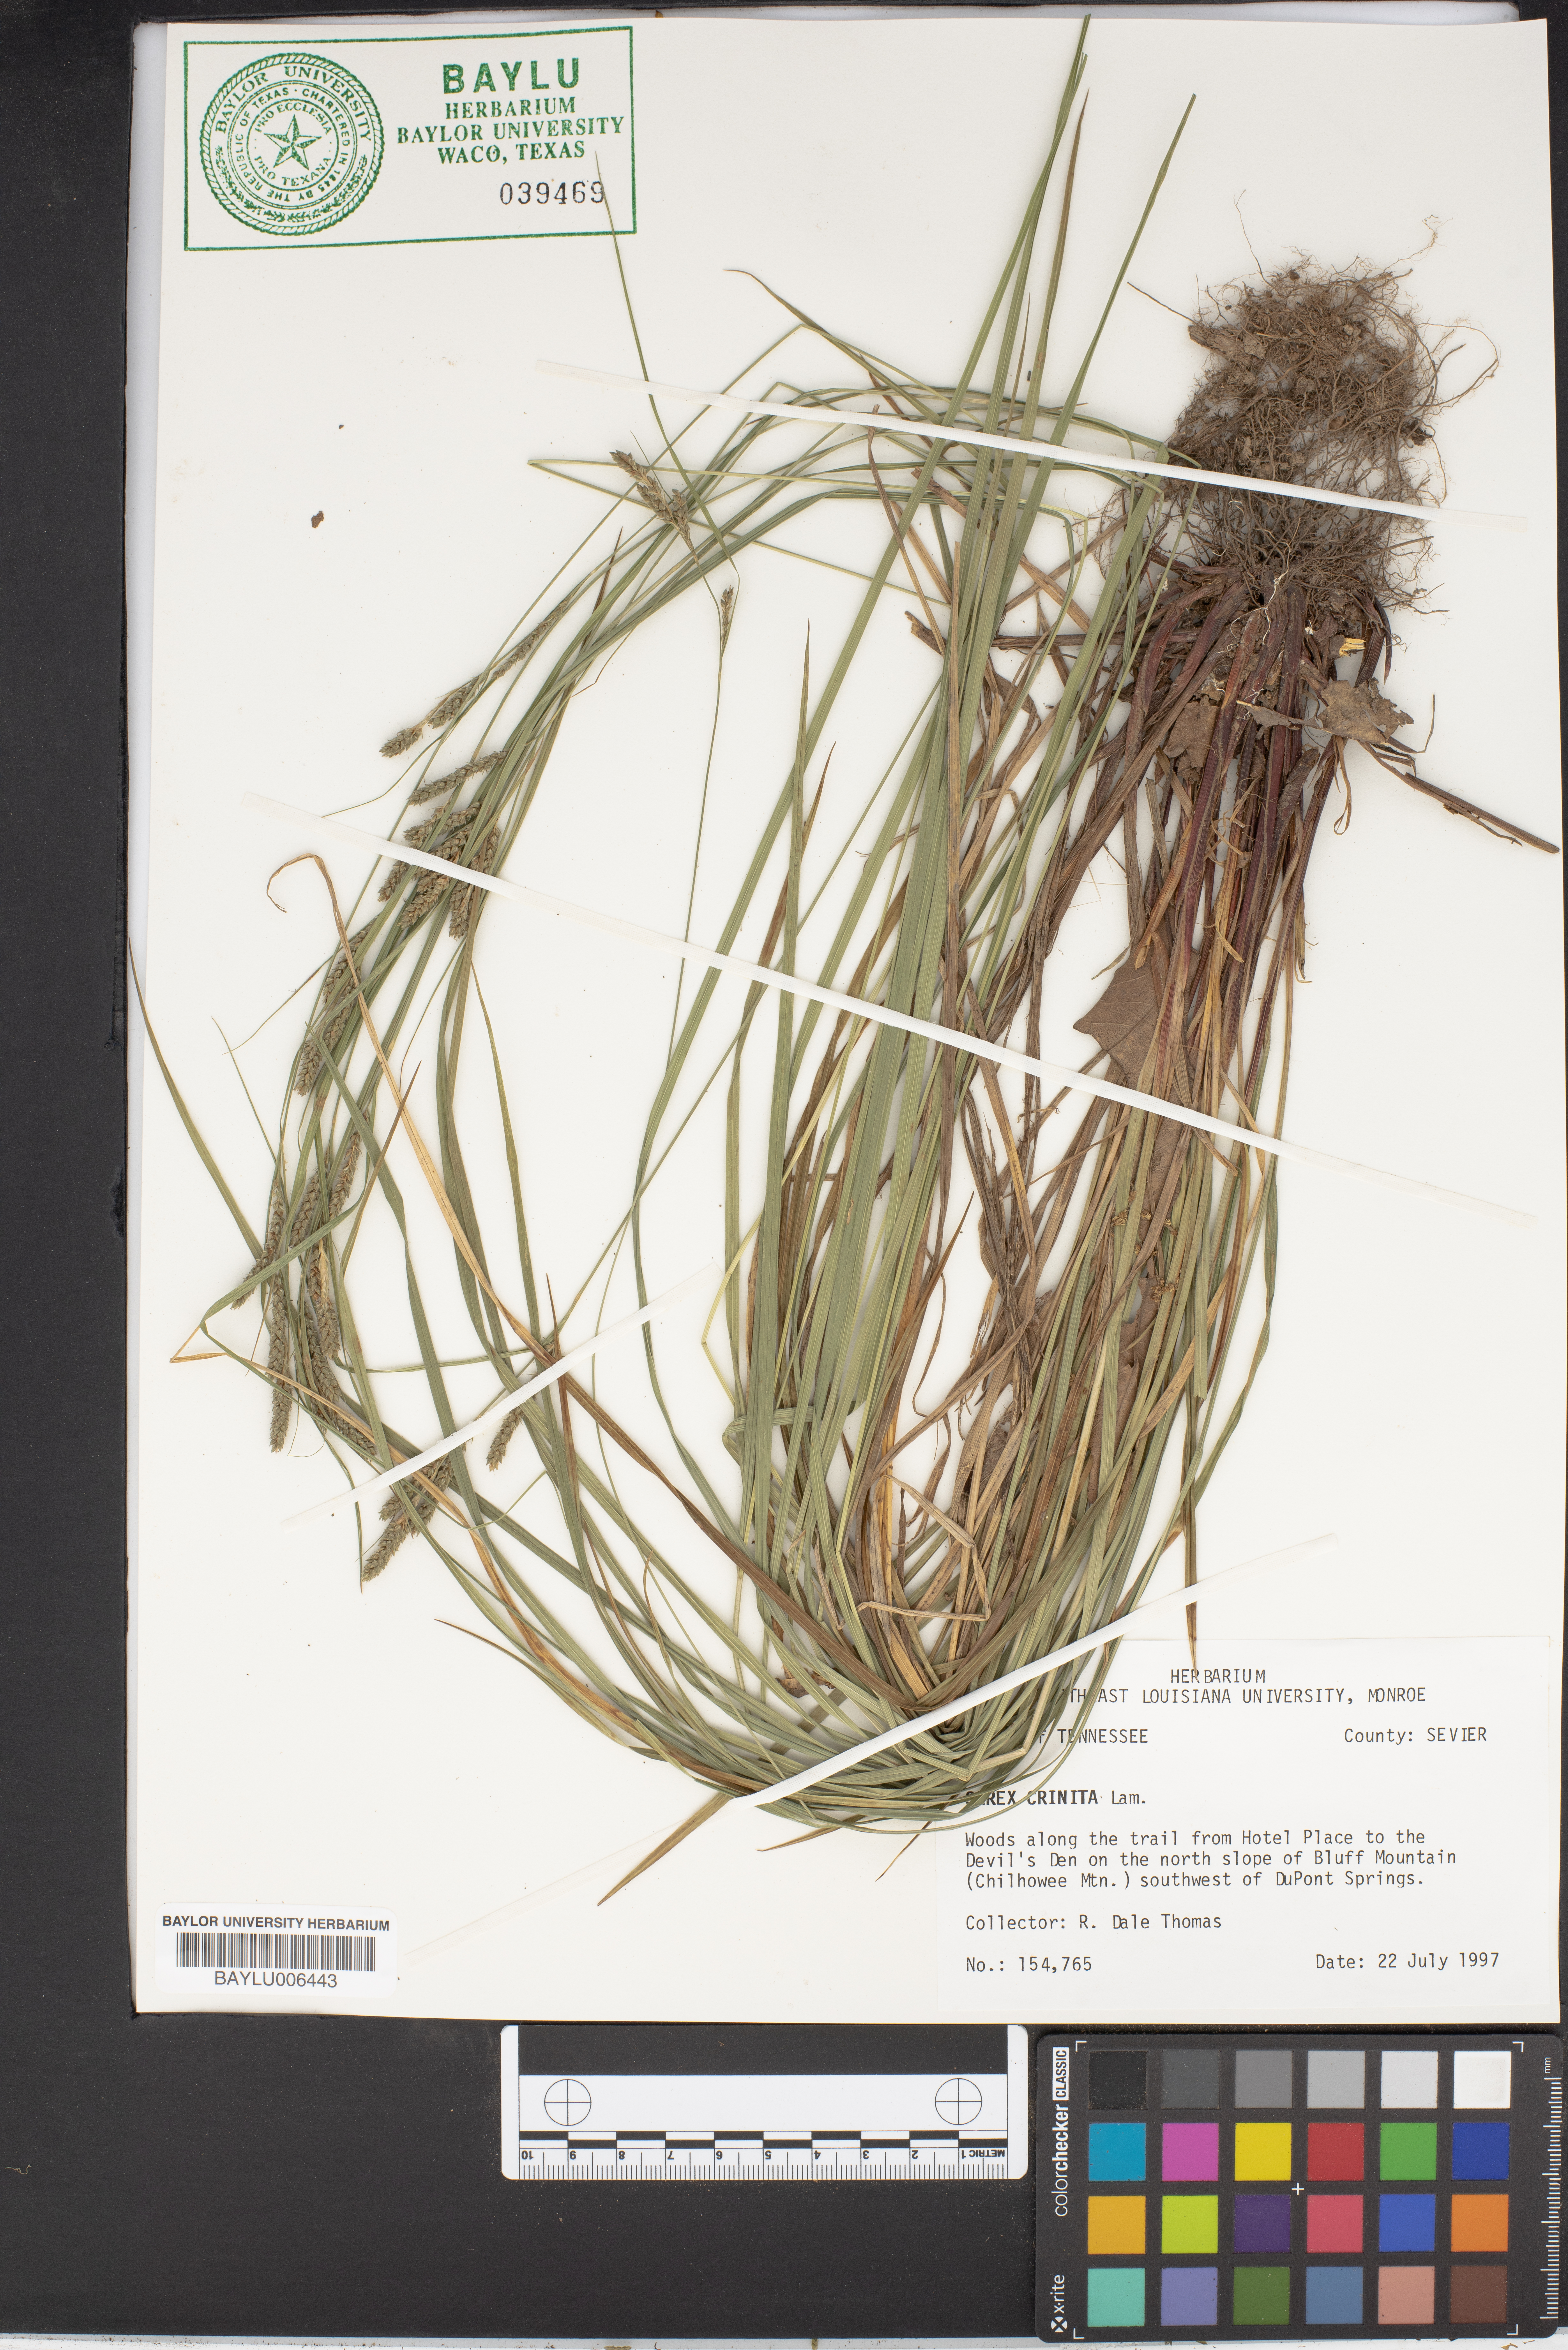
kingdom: Plantae
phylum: Tracheophyta
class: Liliopsida
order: Poales
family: Cyperaceae
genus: Carex
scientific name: Carex crinita
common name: Fringed sedge
